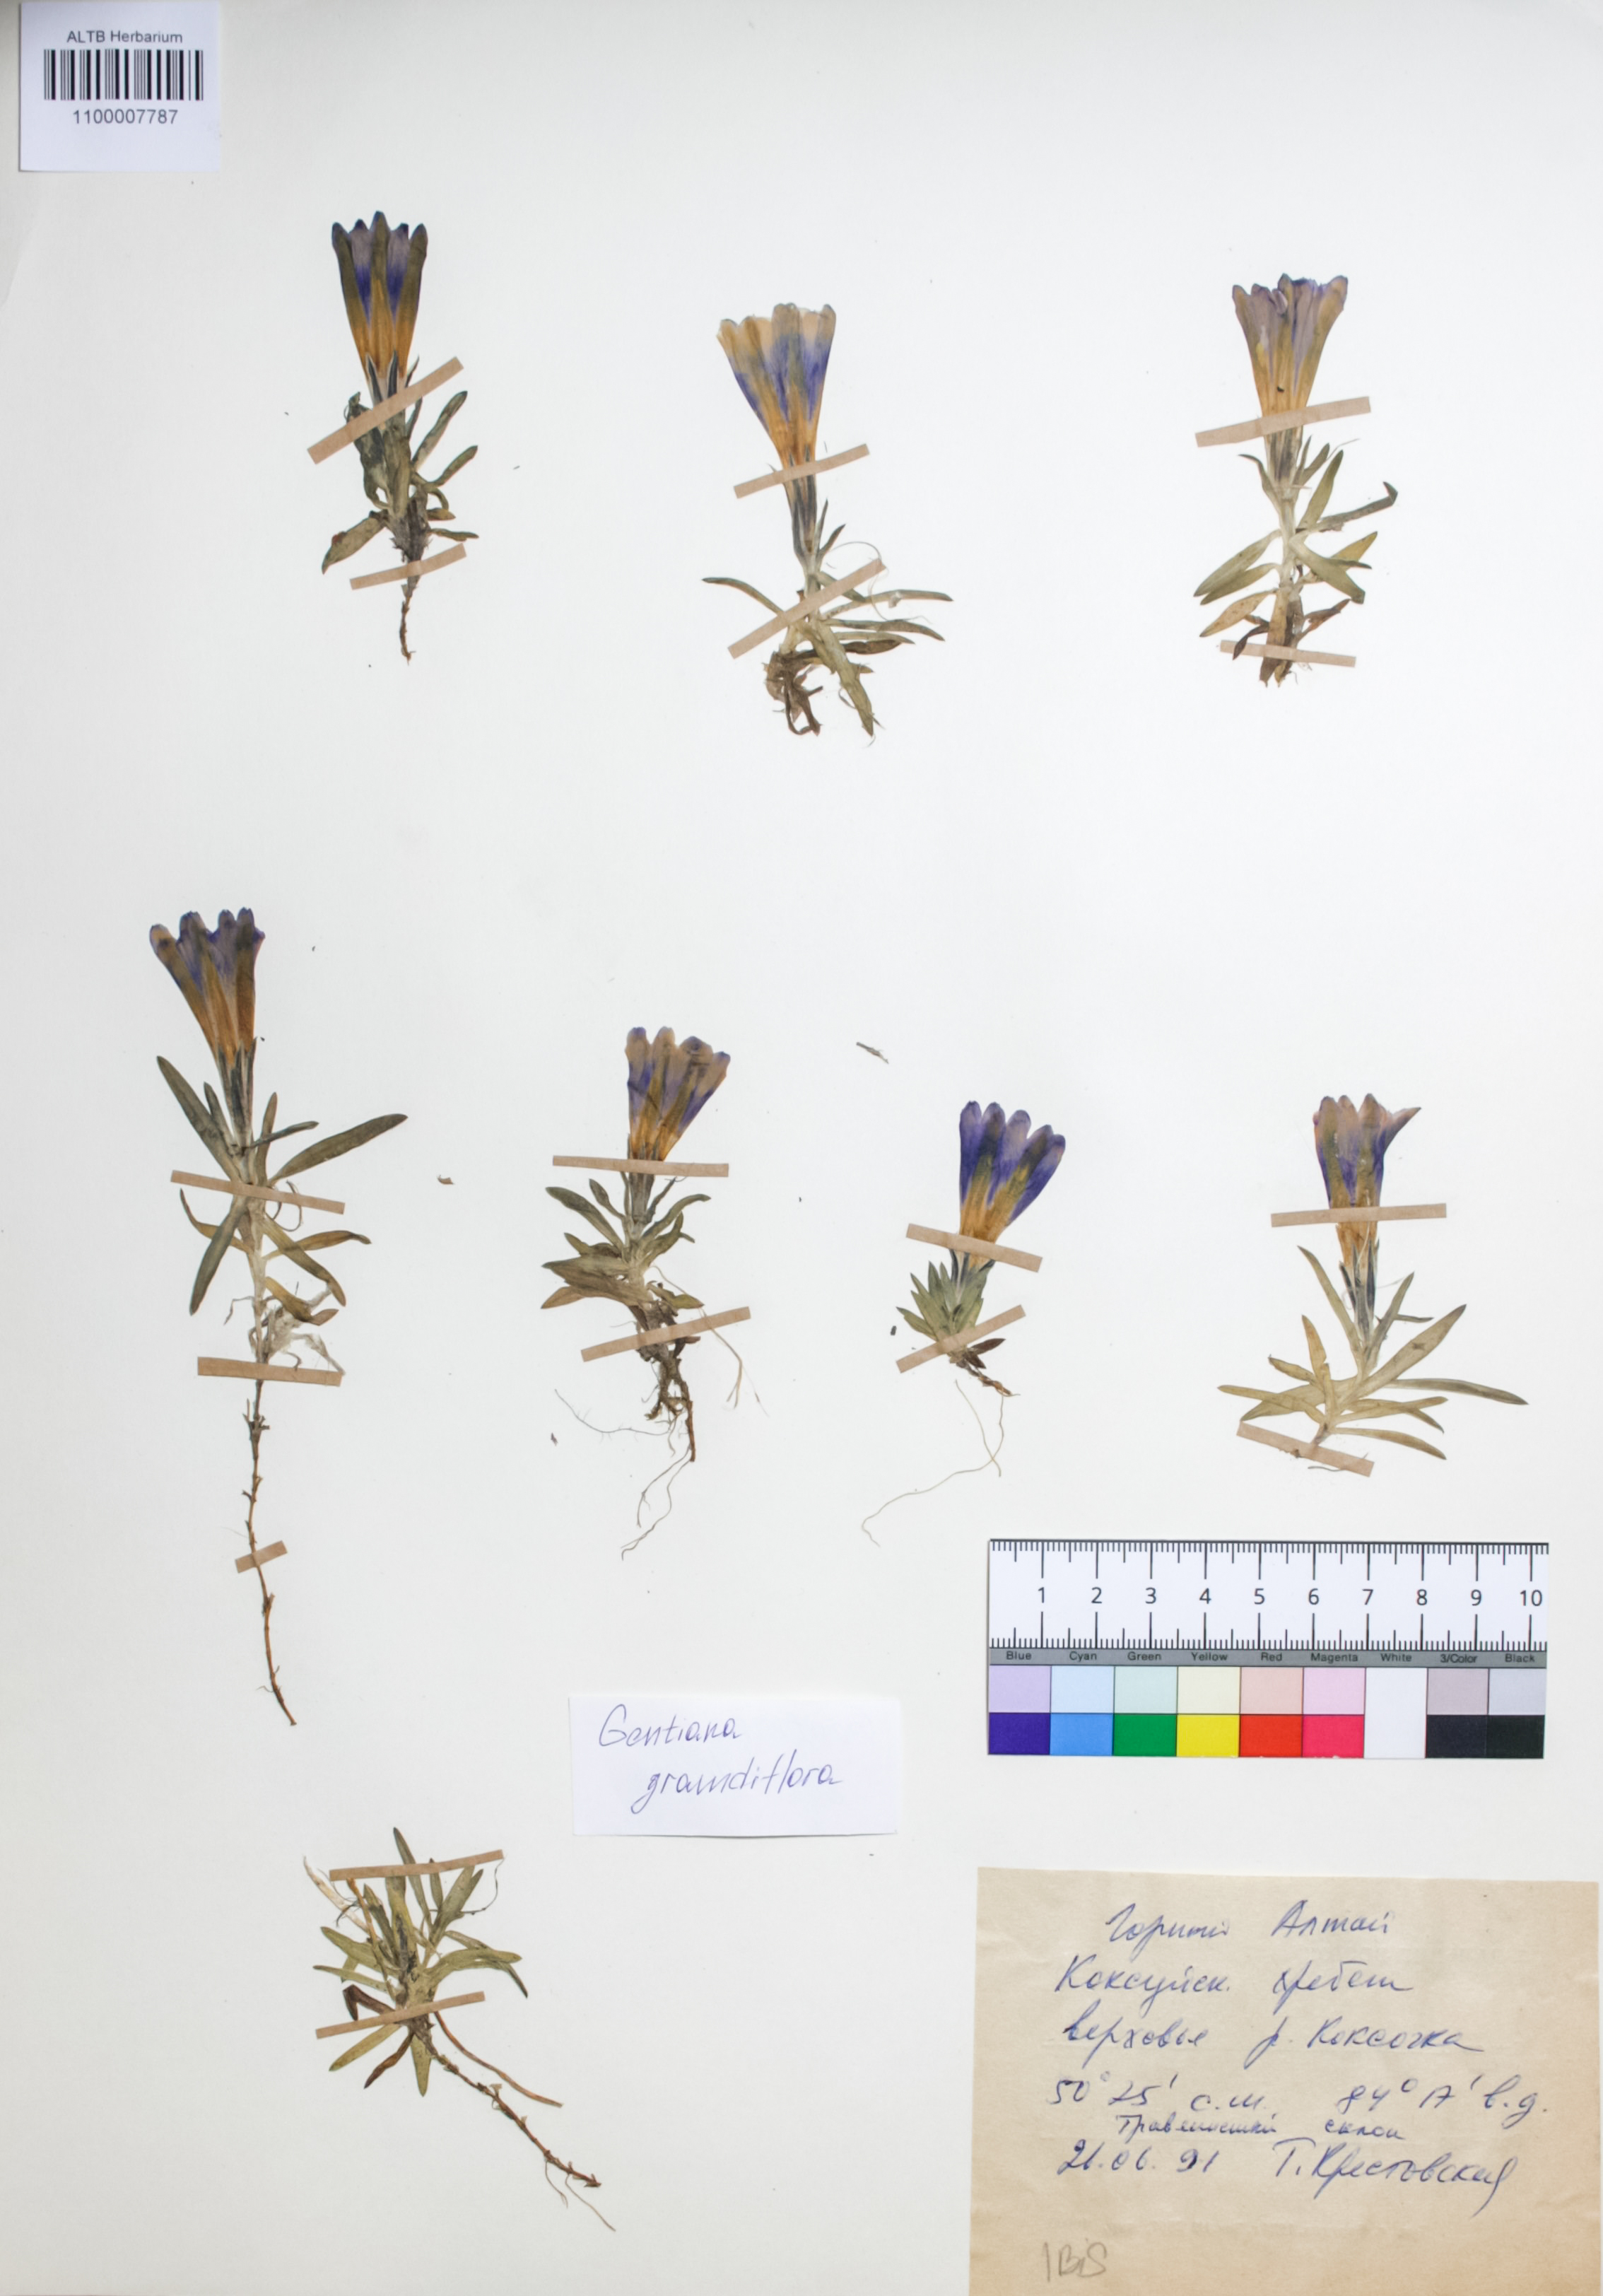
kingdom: Plantae
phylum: Tracheophyta
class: Magnoliopsida
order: Gentianales
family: Gentianaceae
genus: Gentiana
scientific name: Gentiana grandiflora
